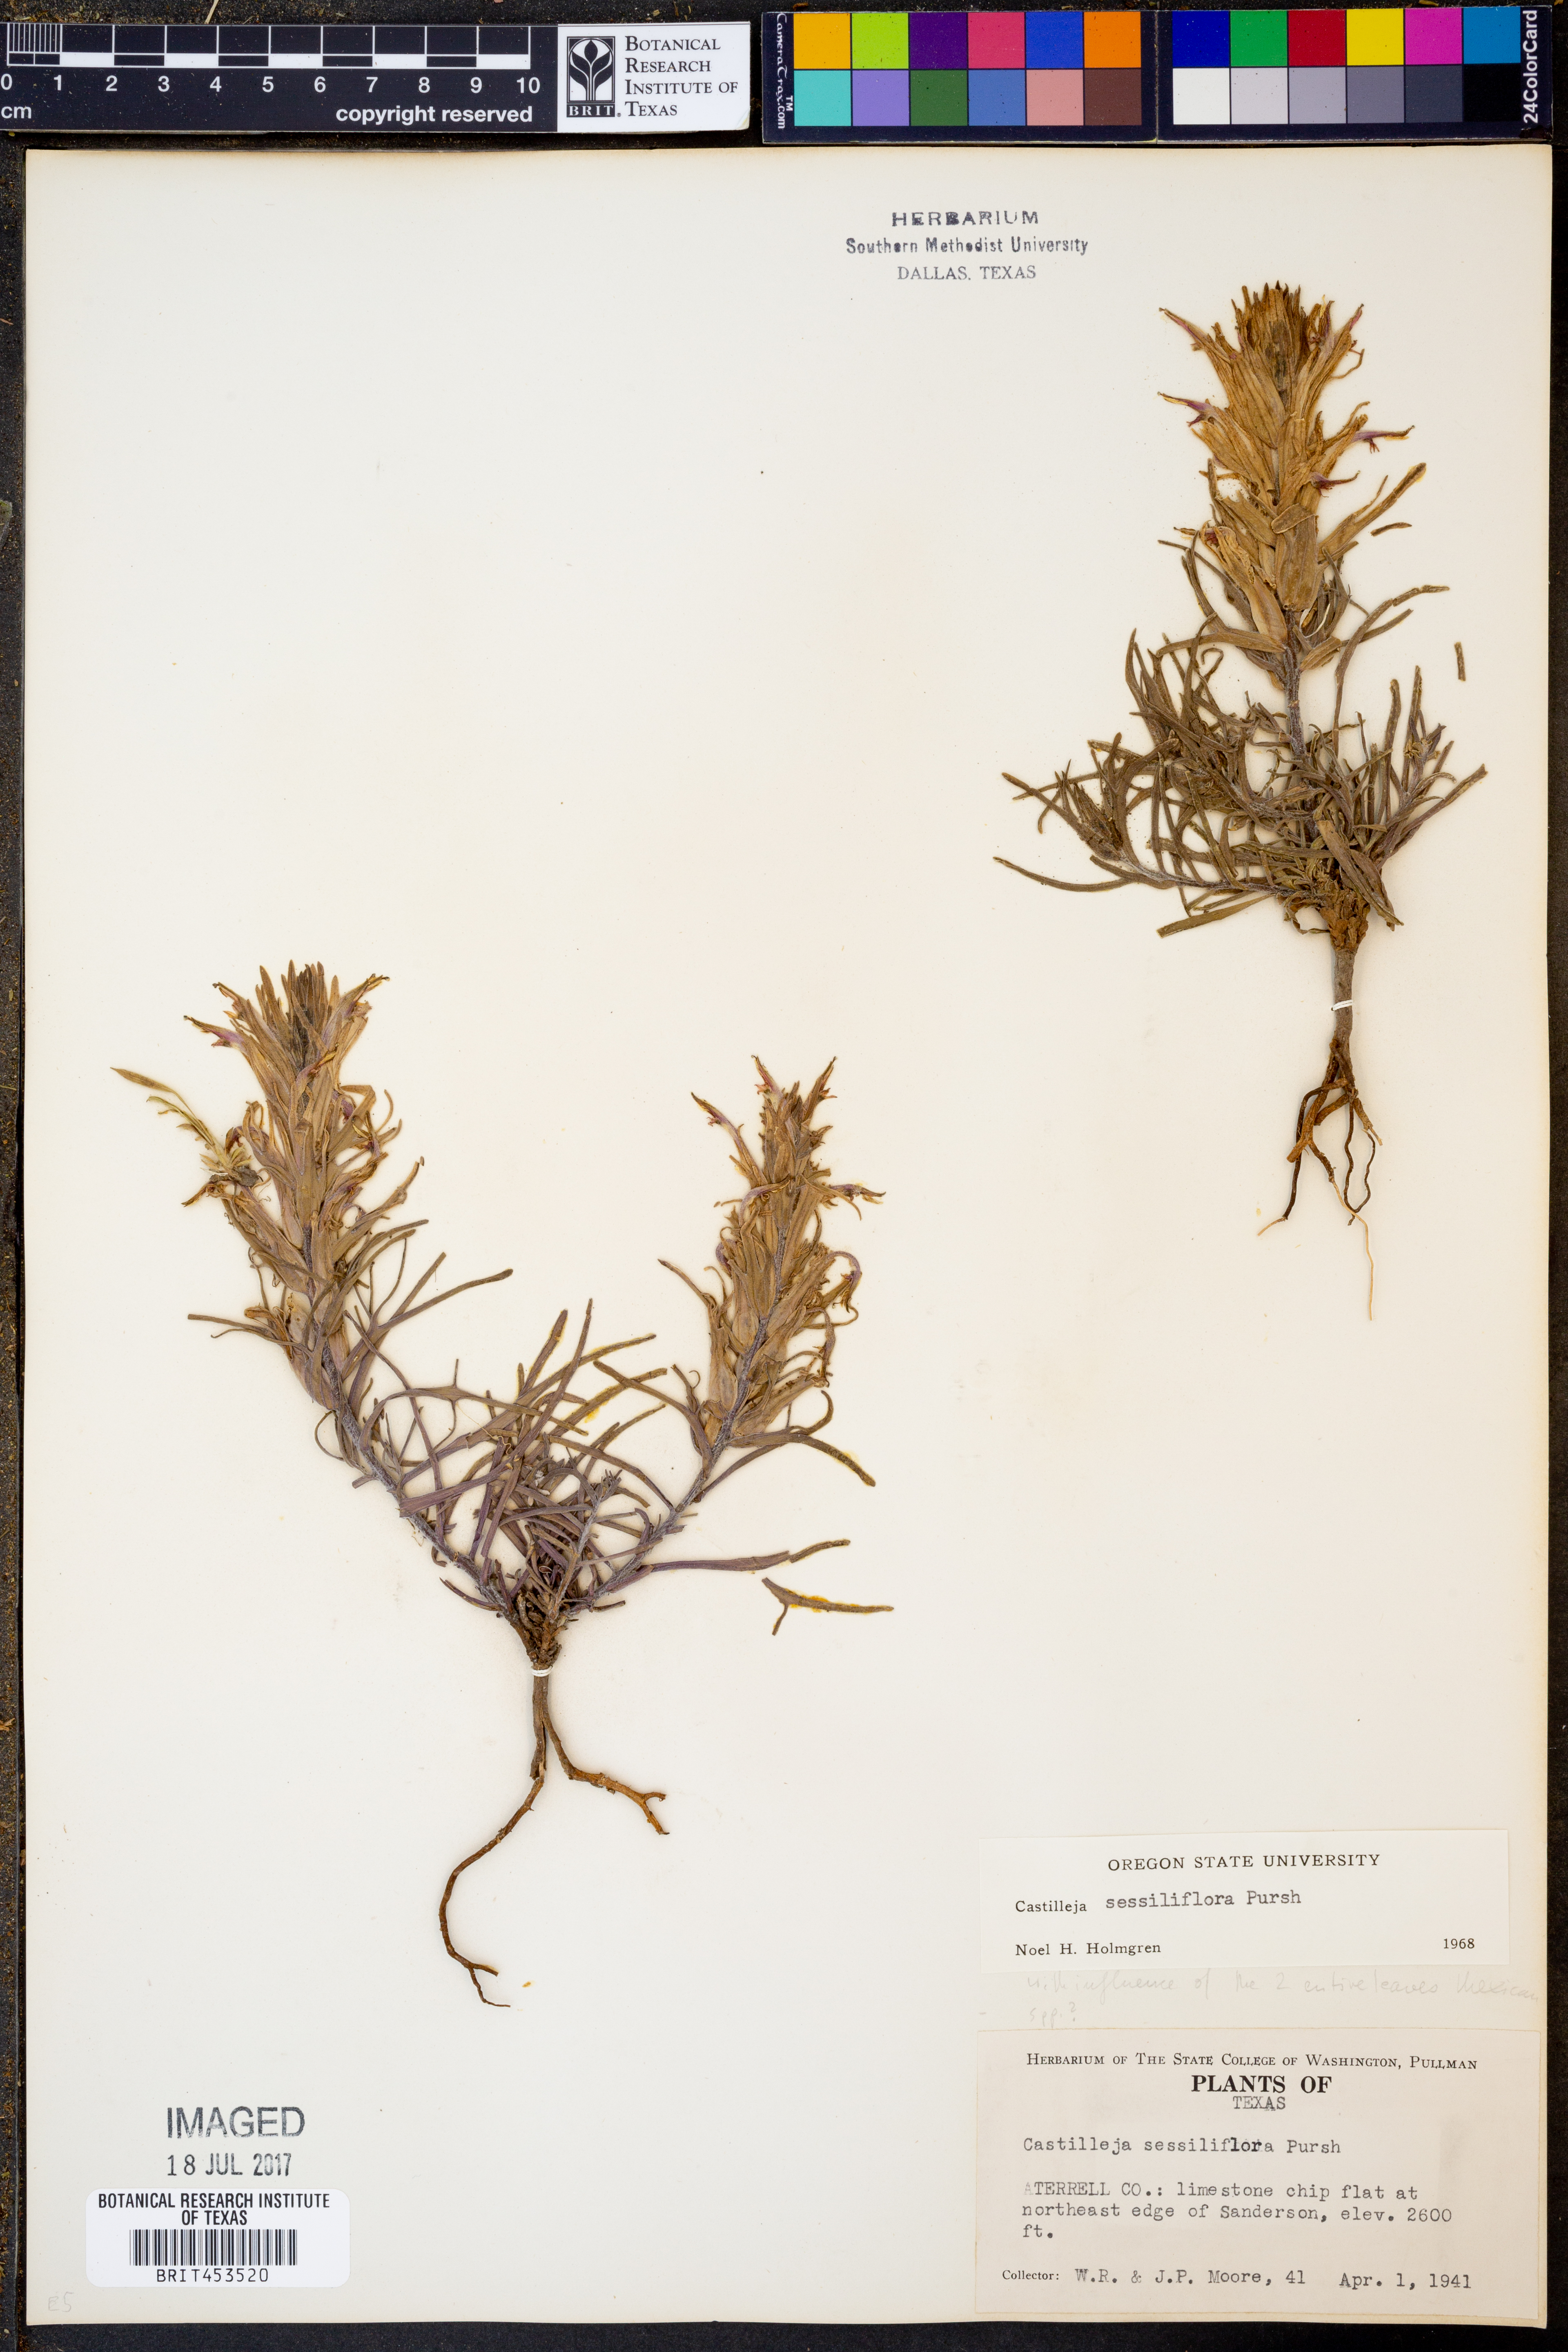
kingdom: Plantae
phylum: Tracheophyta
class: Magnoliopsida
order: Lamiales
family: Orobanchaceae
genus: Castilleja
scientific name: Castilleja sessiliflora
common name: Downy paintbrush
